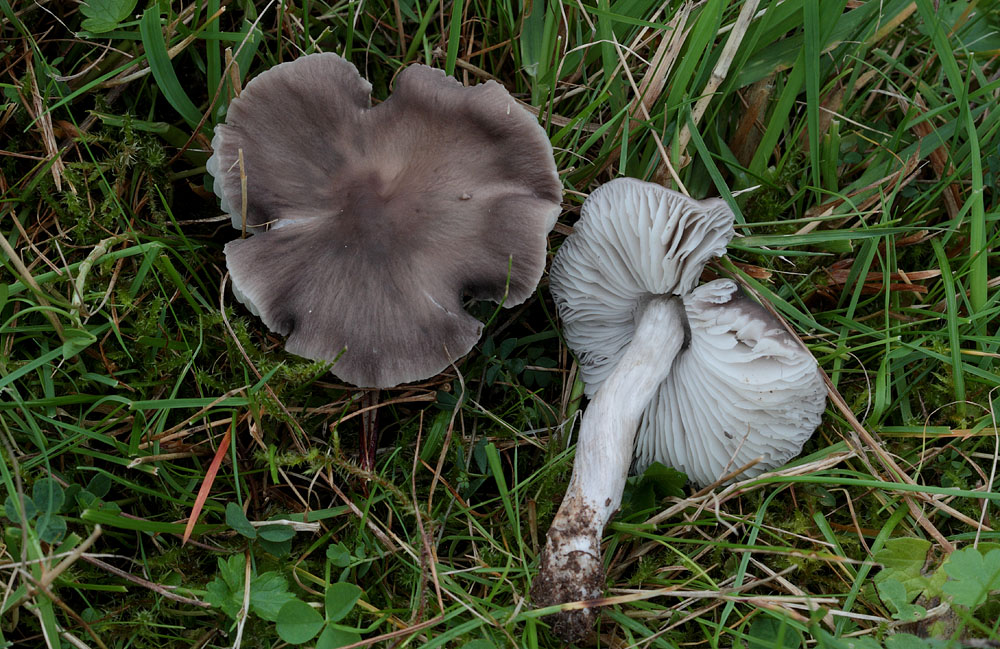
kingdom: Fungi
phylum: Basidiomycota
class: Agaricomycetes
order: Agaricales
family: Tricholomataceae
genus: Dermoloma
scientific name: Dermoloma cuneifolium
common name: Crazed cap
